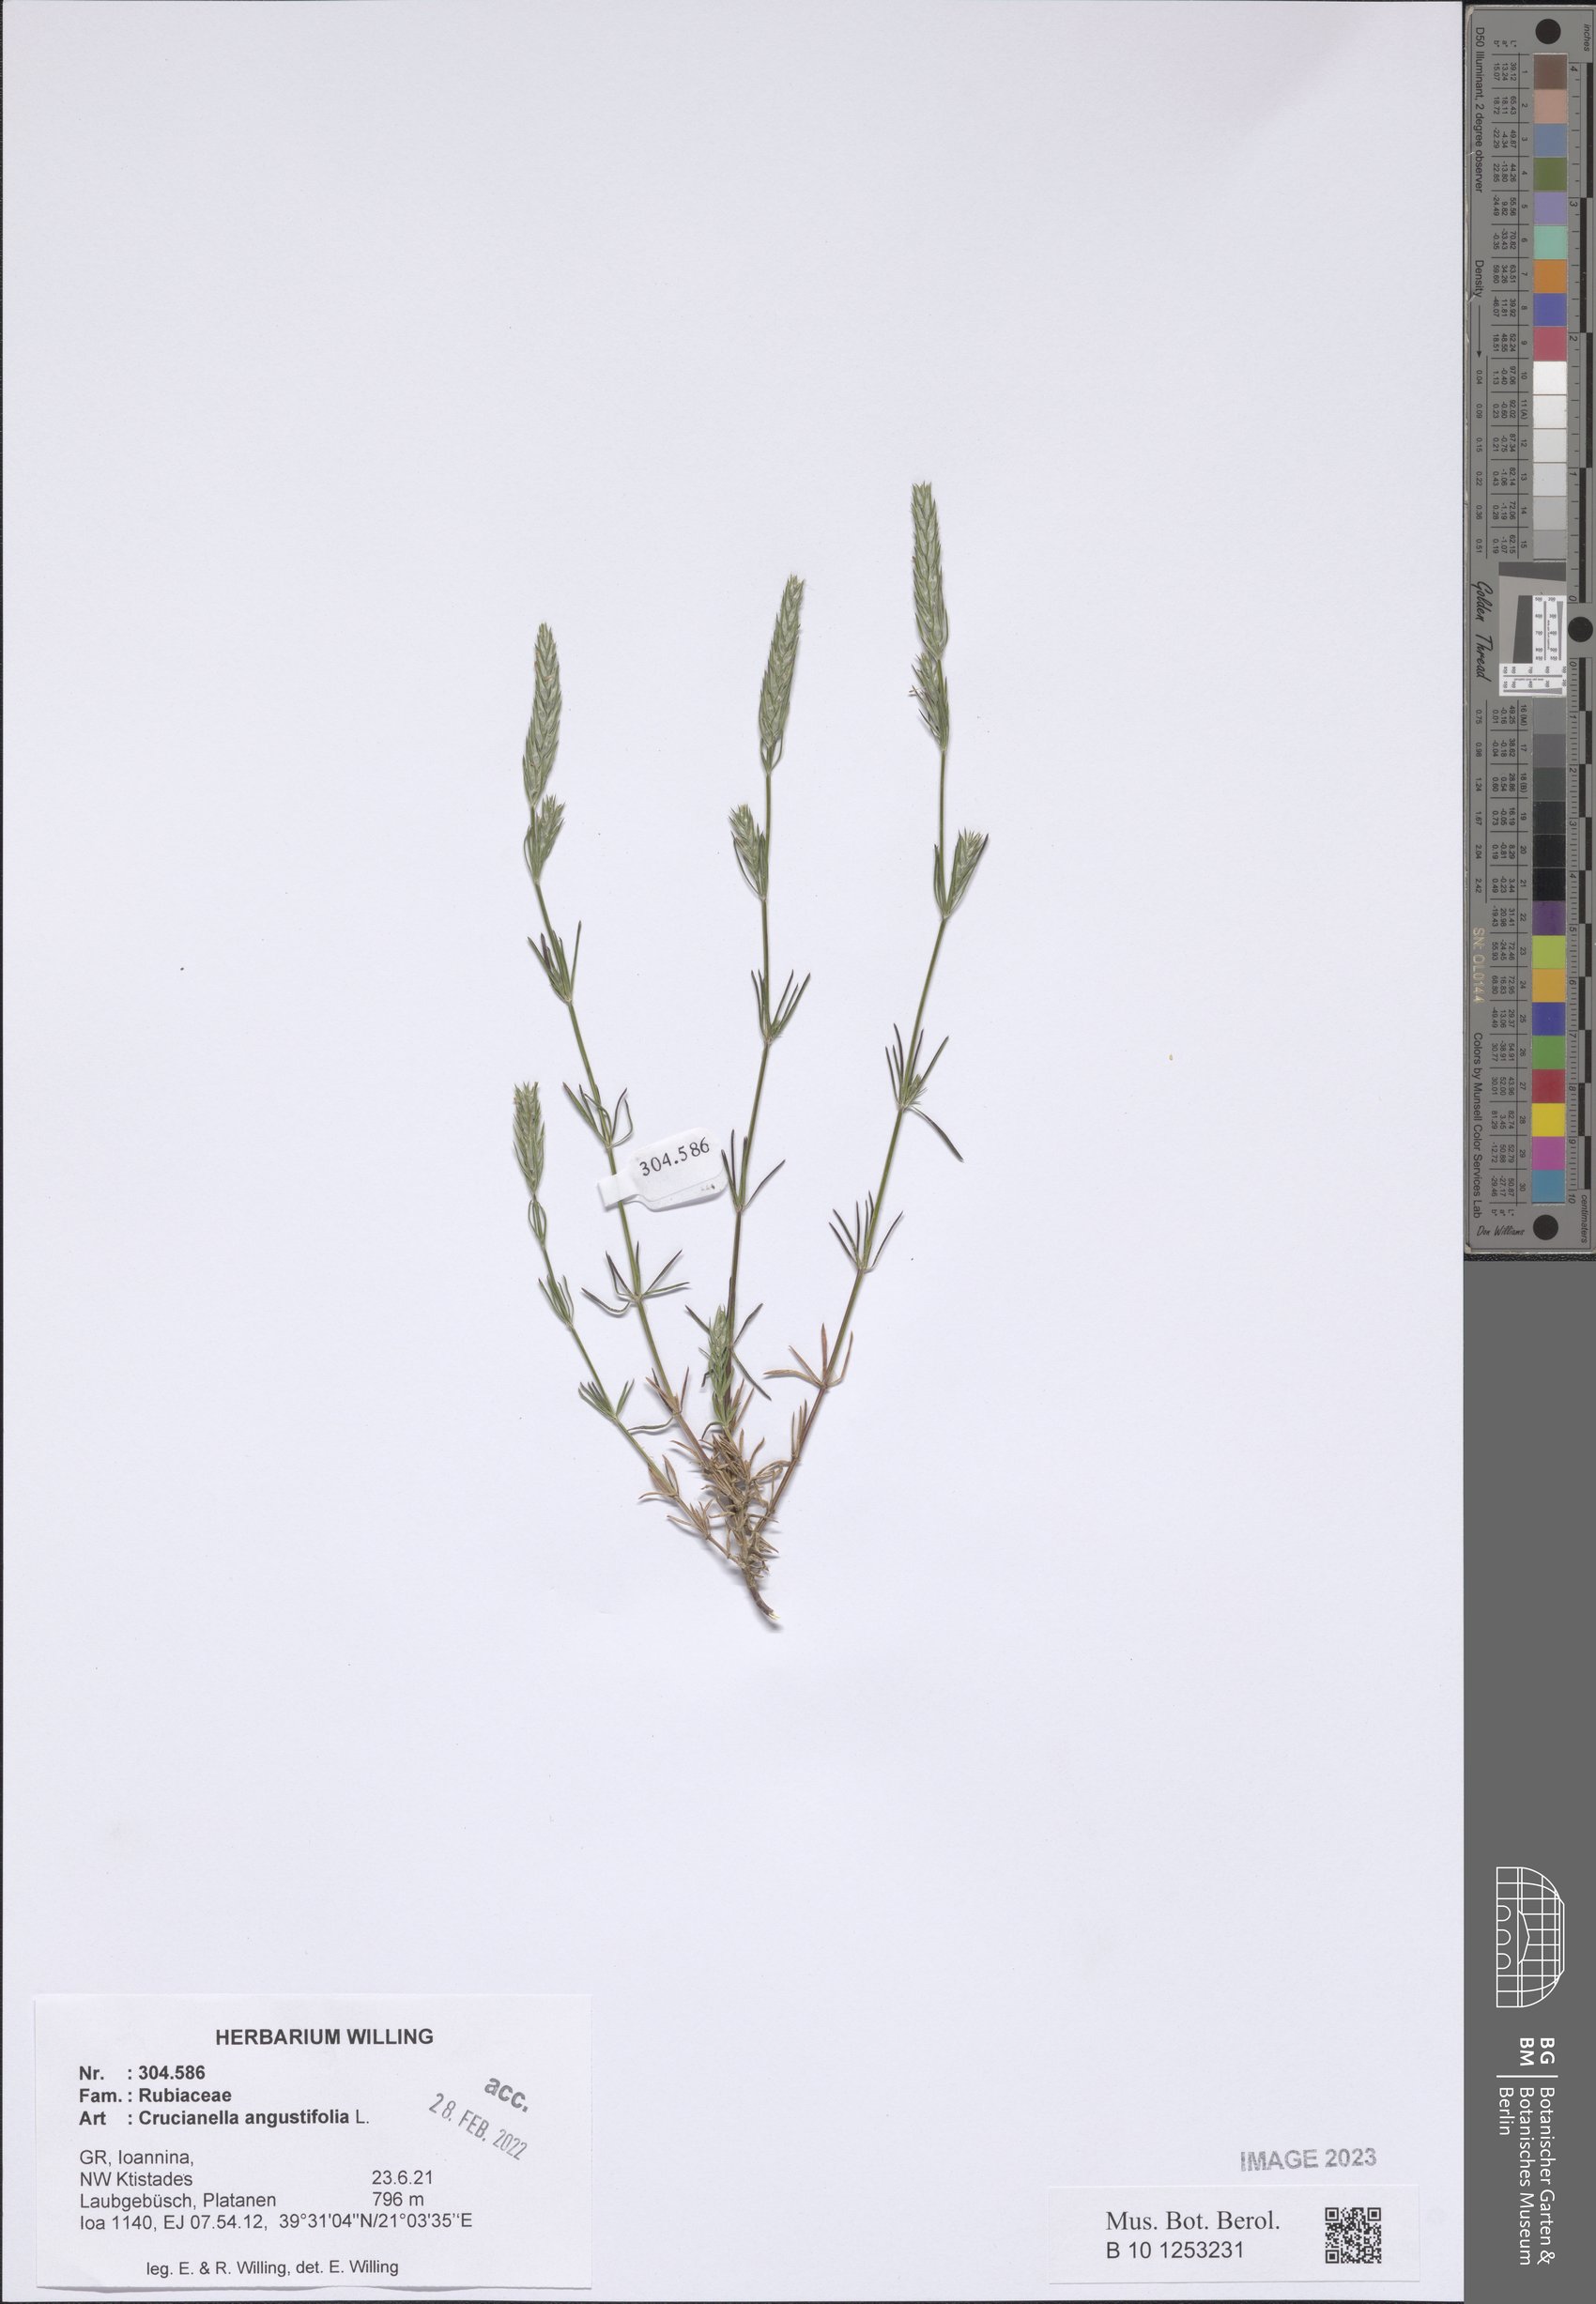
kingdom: Plantae
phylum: Tracheophyta
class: Magnoliopsida
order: Gentianales
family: Rubiaceae
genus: Crucianella
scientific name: Crucianella angustifolia
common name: Narrowleaf crucianella
